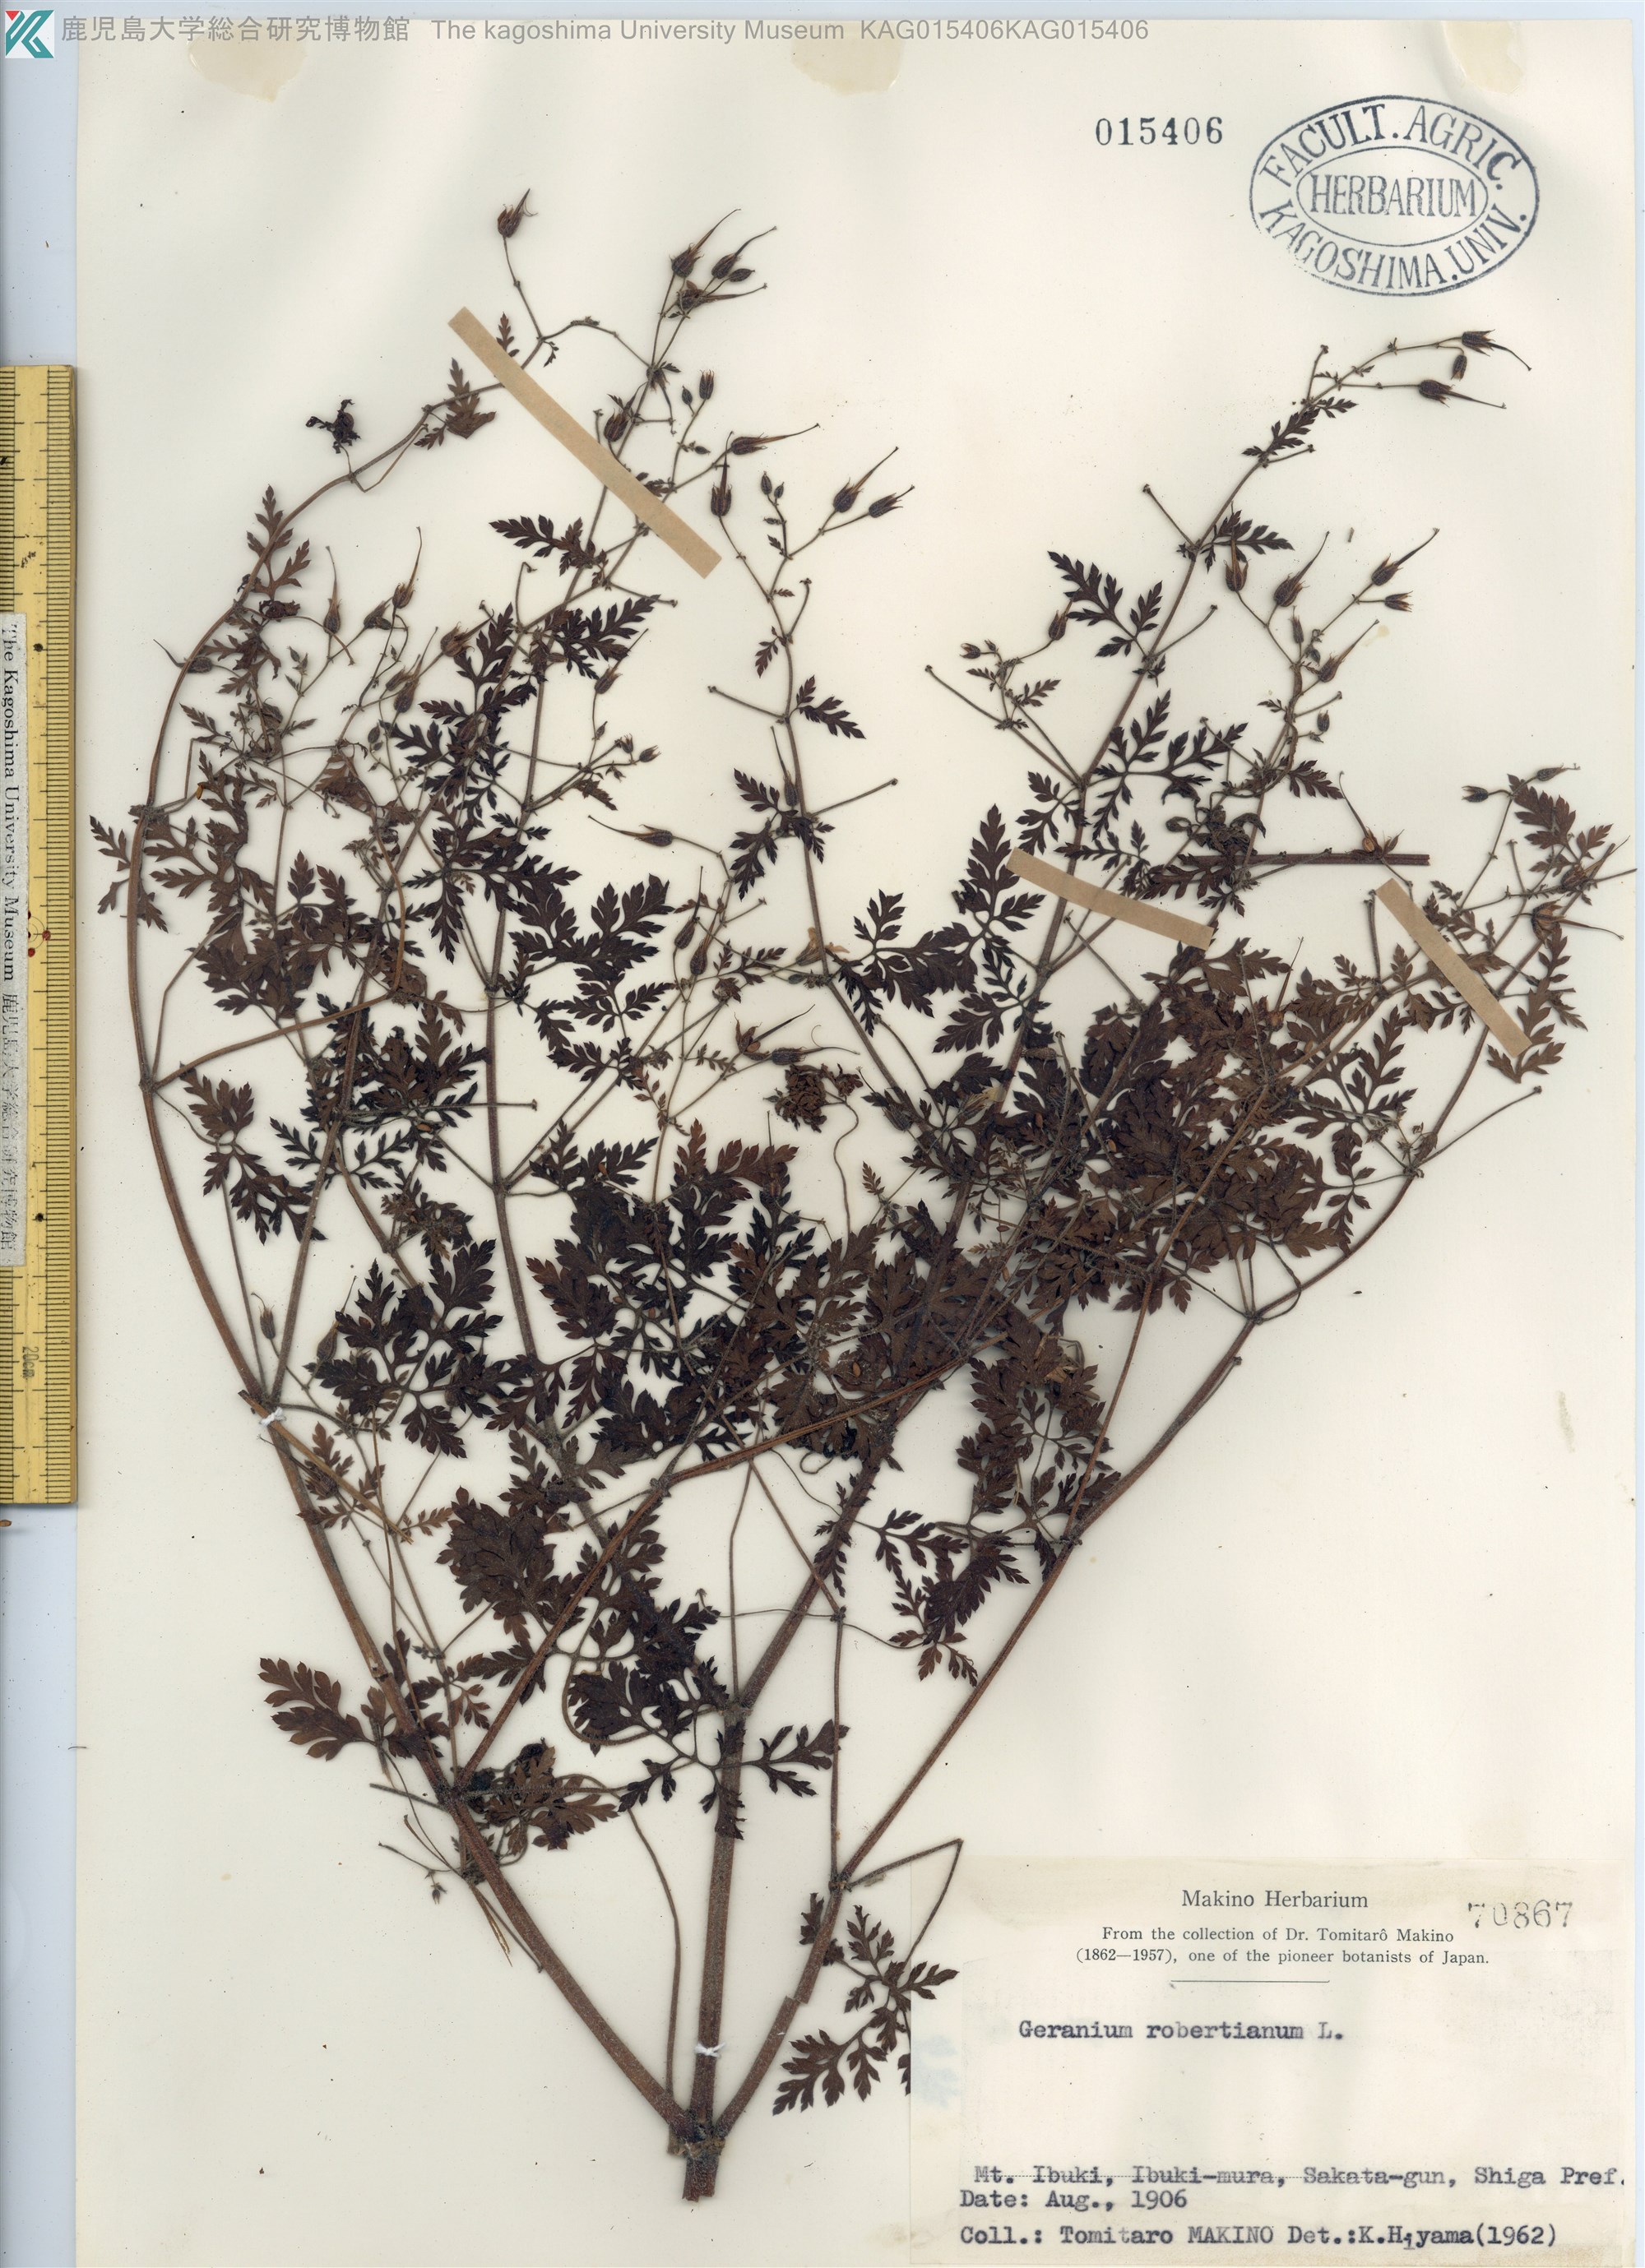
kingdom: Plantae
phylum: Tracheophyta
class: Magnoliopsida
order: Geraniales
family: Geraniaceae
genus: Geranium
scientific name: Geranium robertianum
